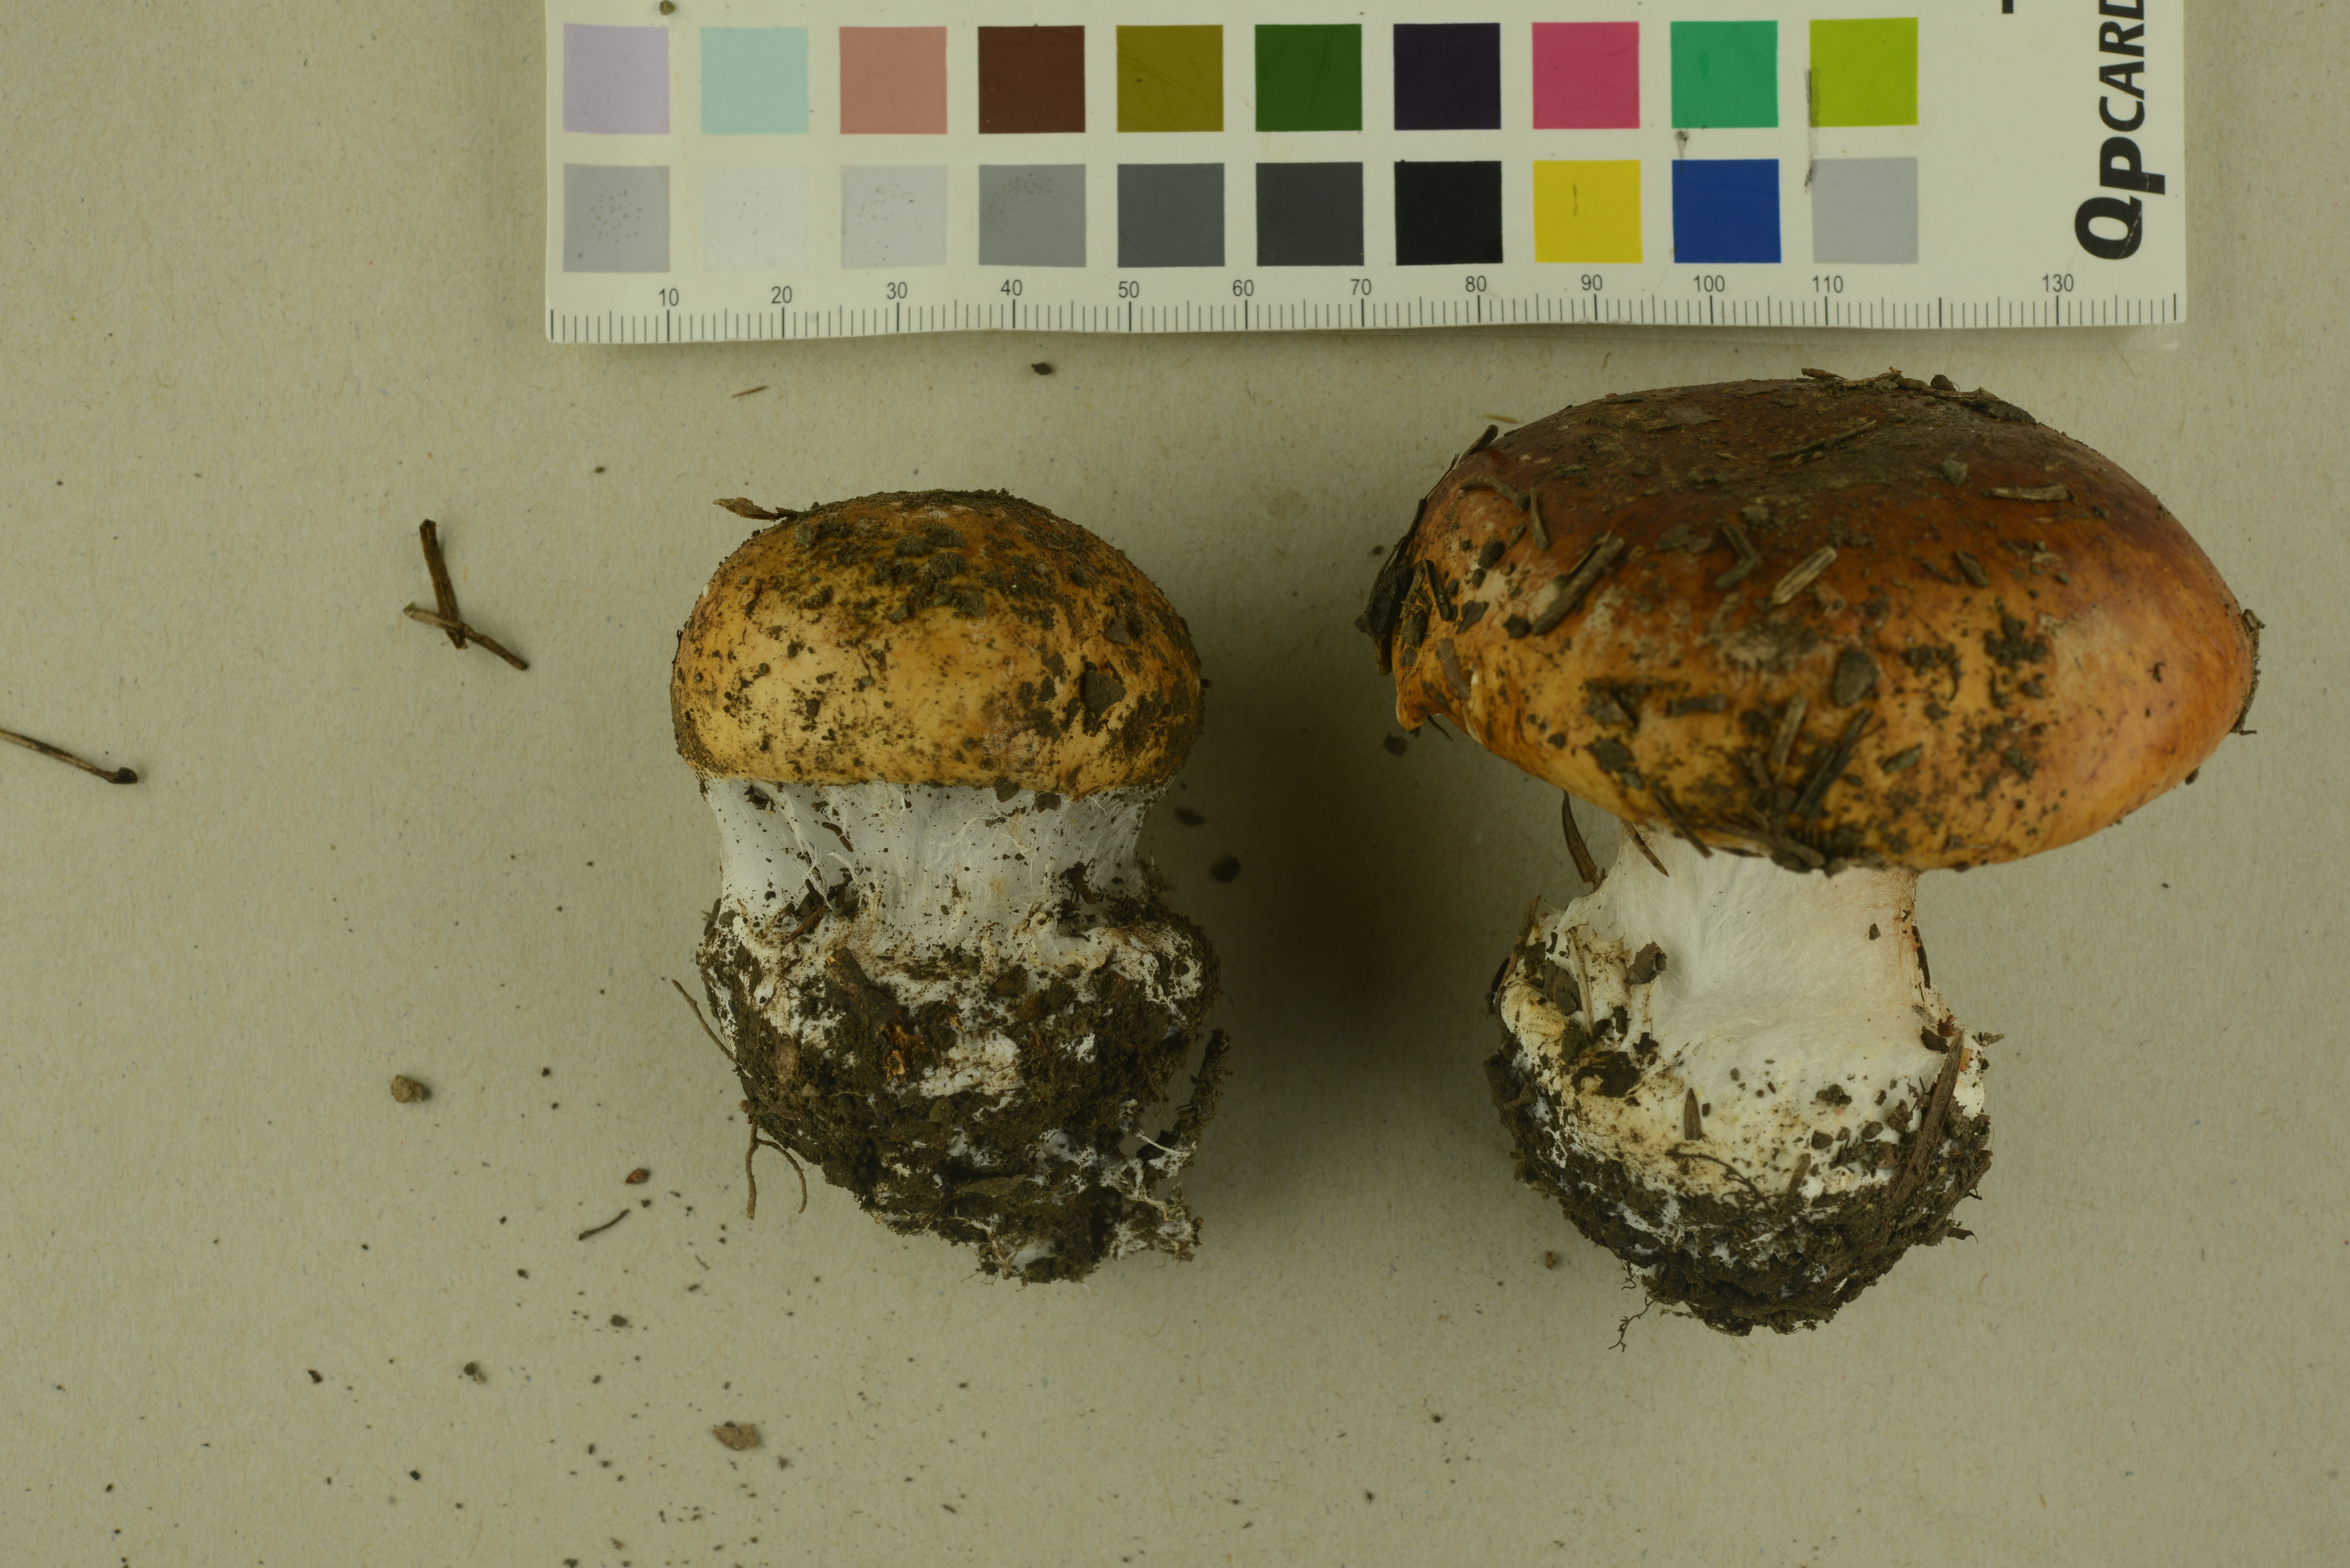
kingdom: Fungi
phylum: Basidiomycota
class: Agaricomycetes
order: Agaricales
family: Cortinariaceae
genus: Calonarius
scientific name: Calonarius saporatus
